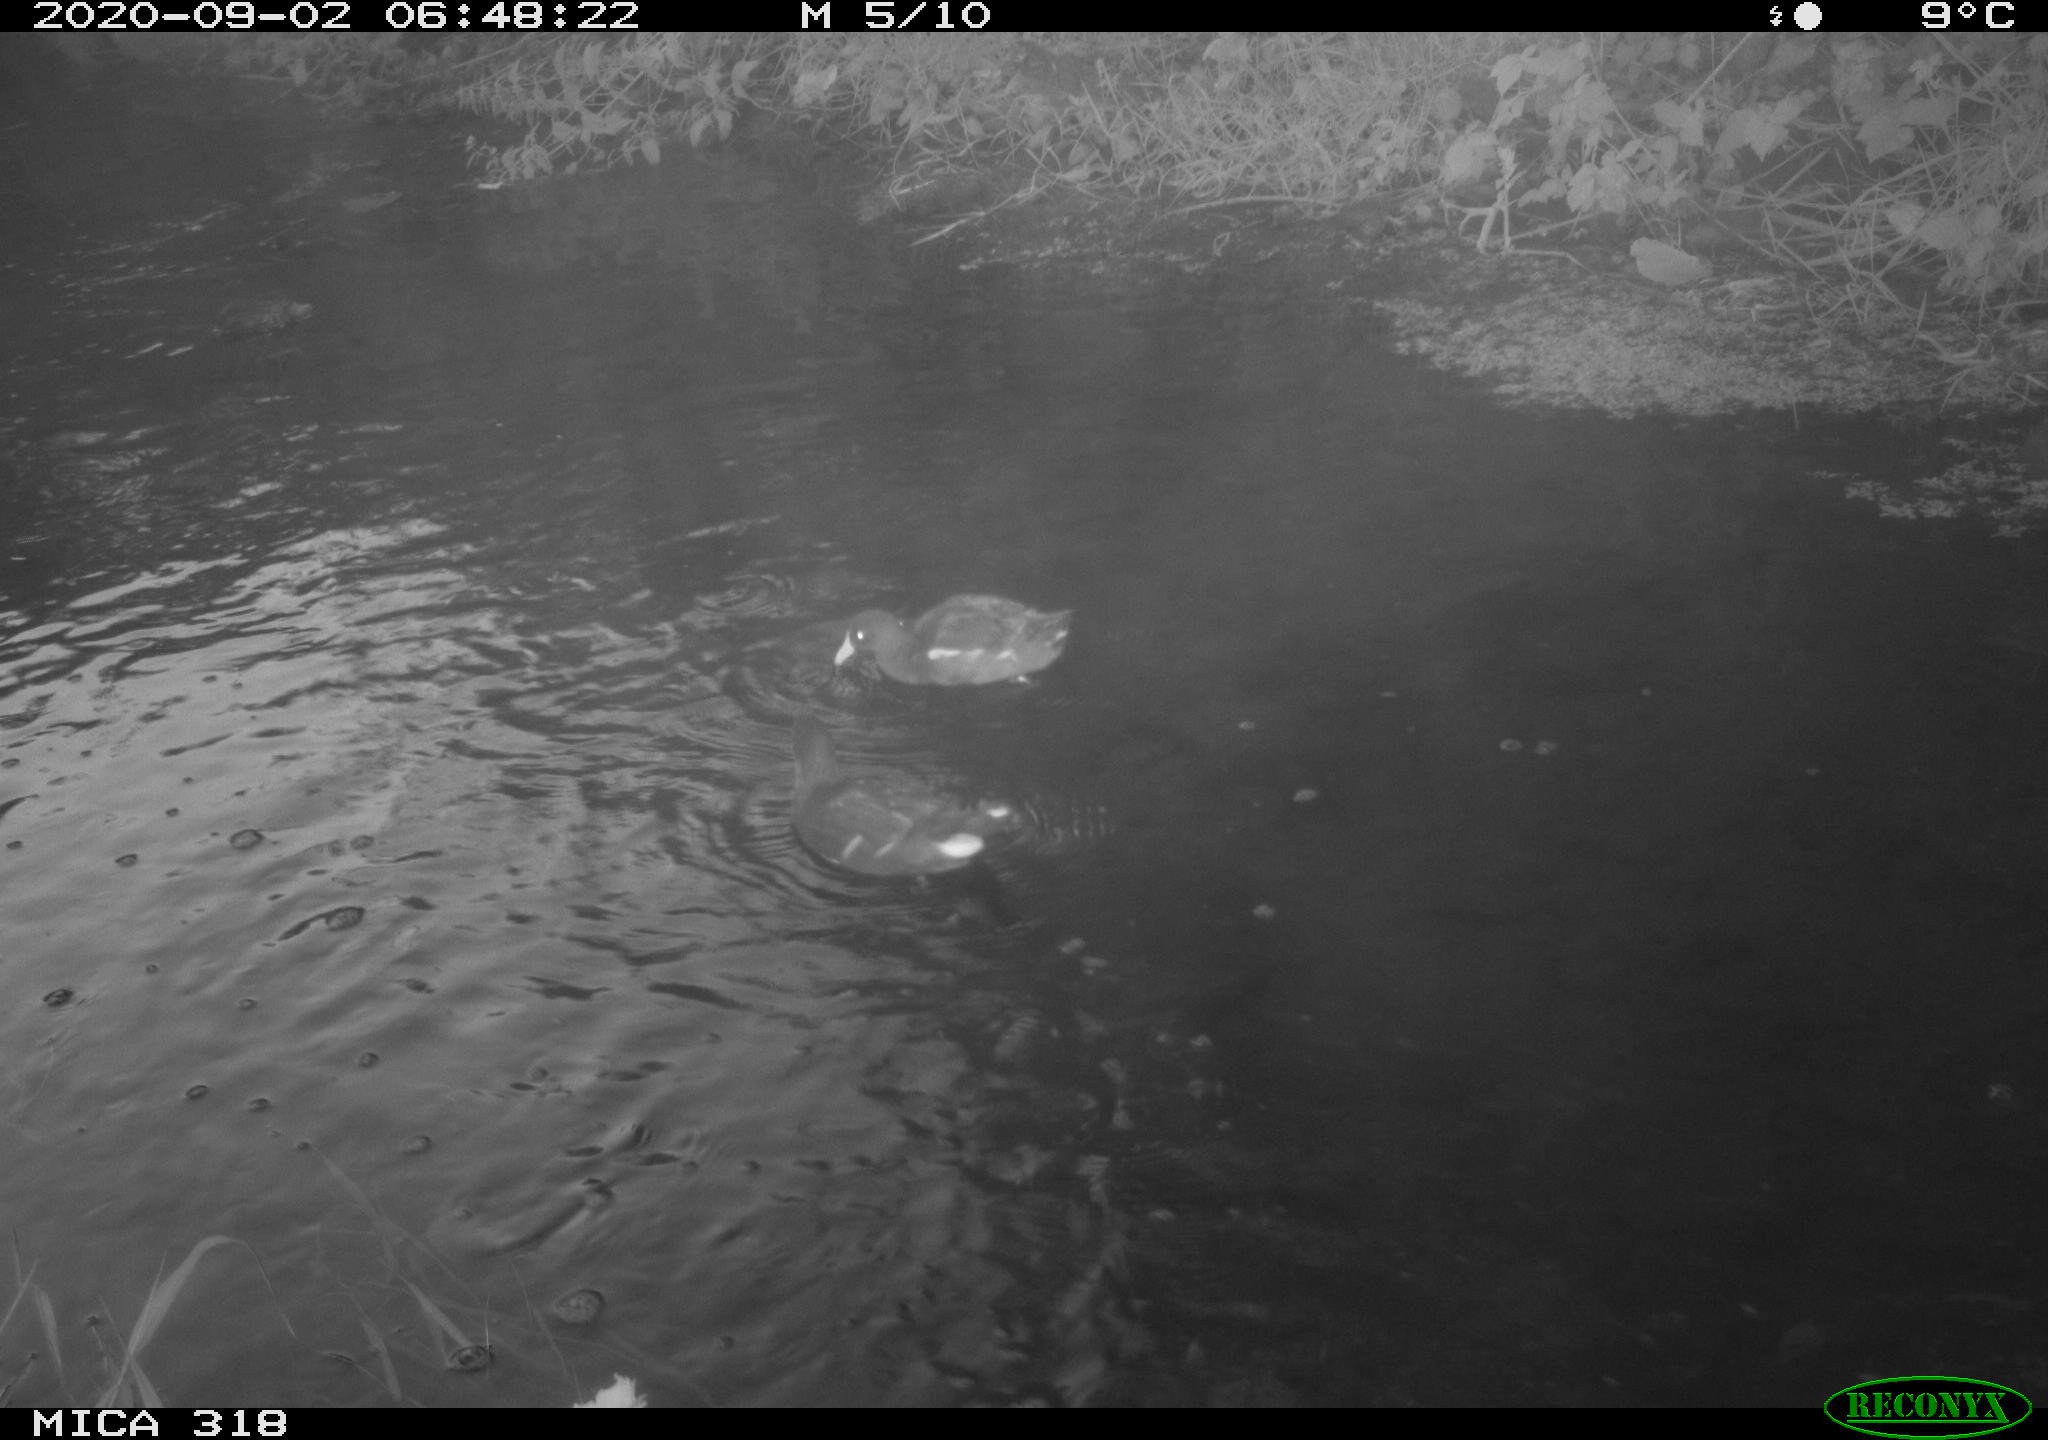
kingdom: Animalia
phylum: Chordata
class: Aves
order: Gruiformes
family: Rallidae
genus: Gallinula
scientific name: Gallinula chloropus
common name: Common moorhen
